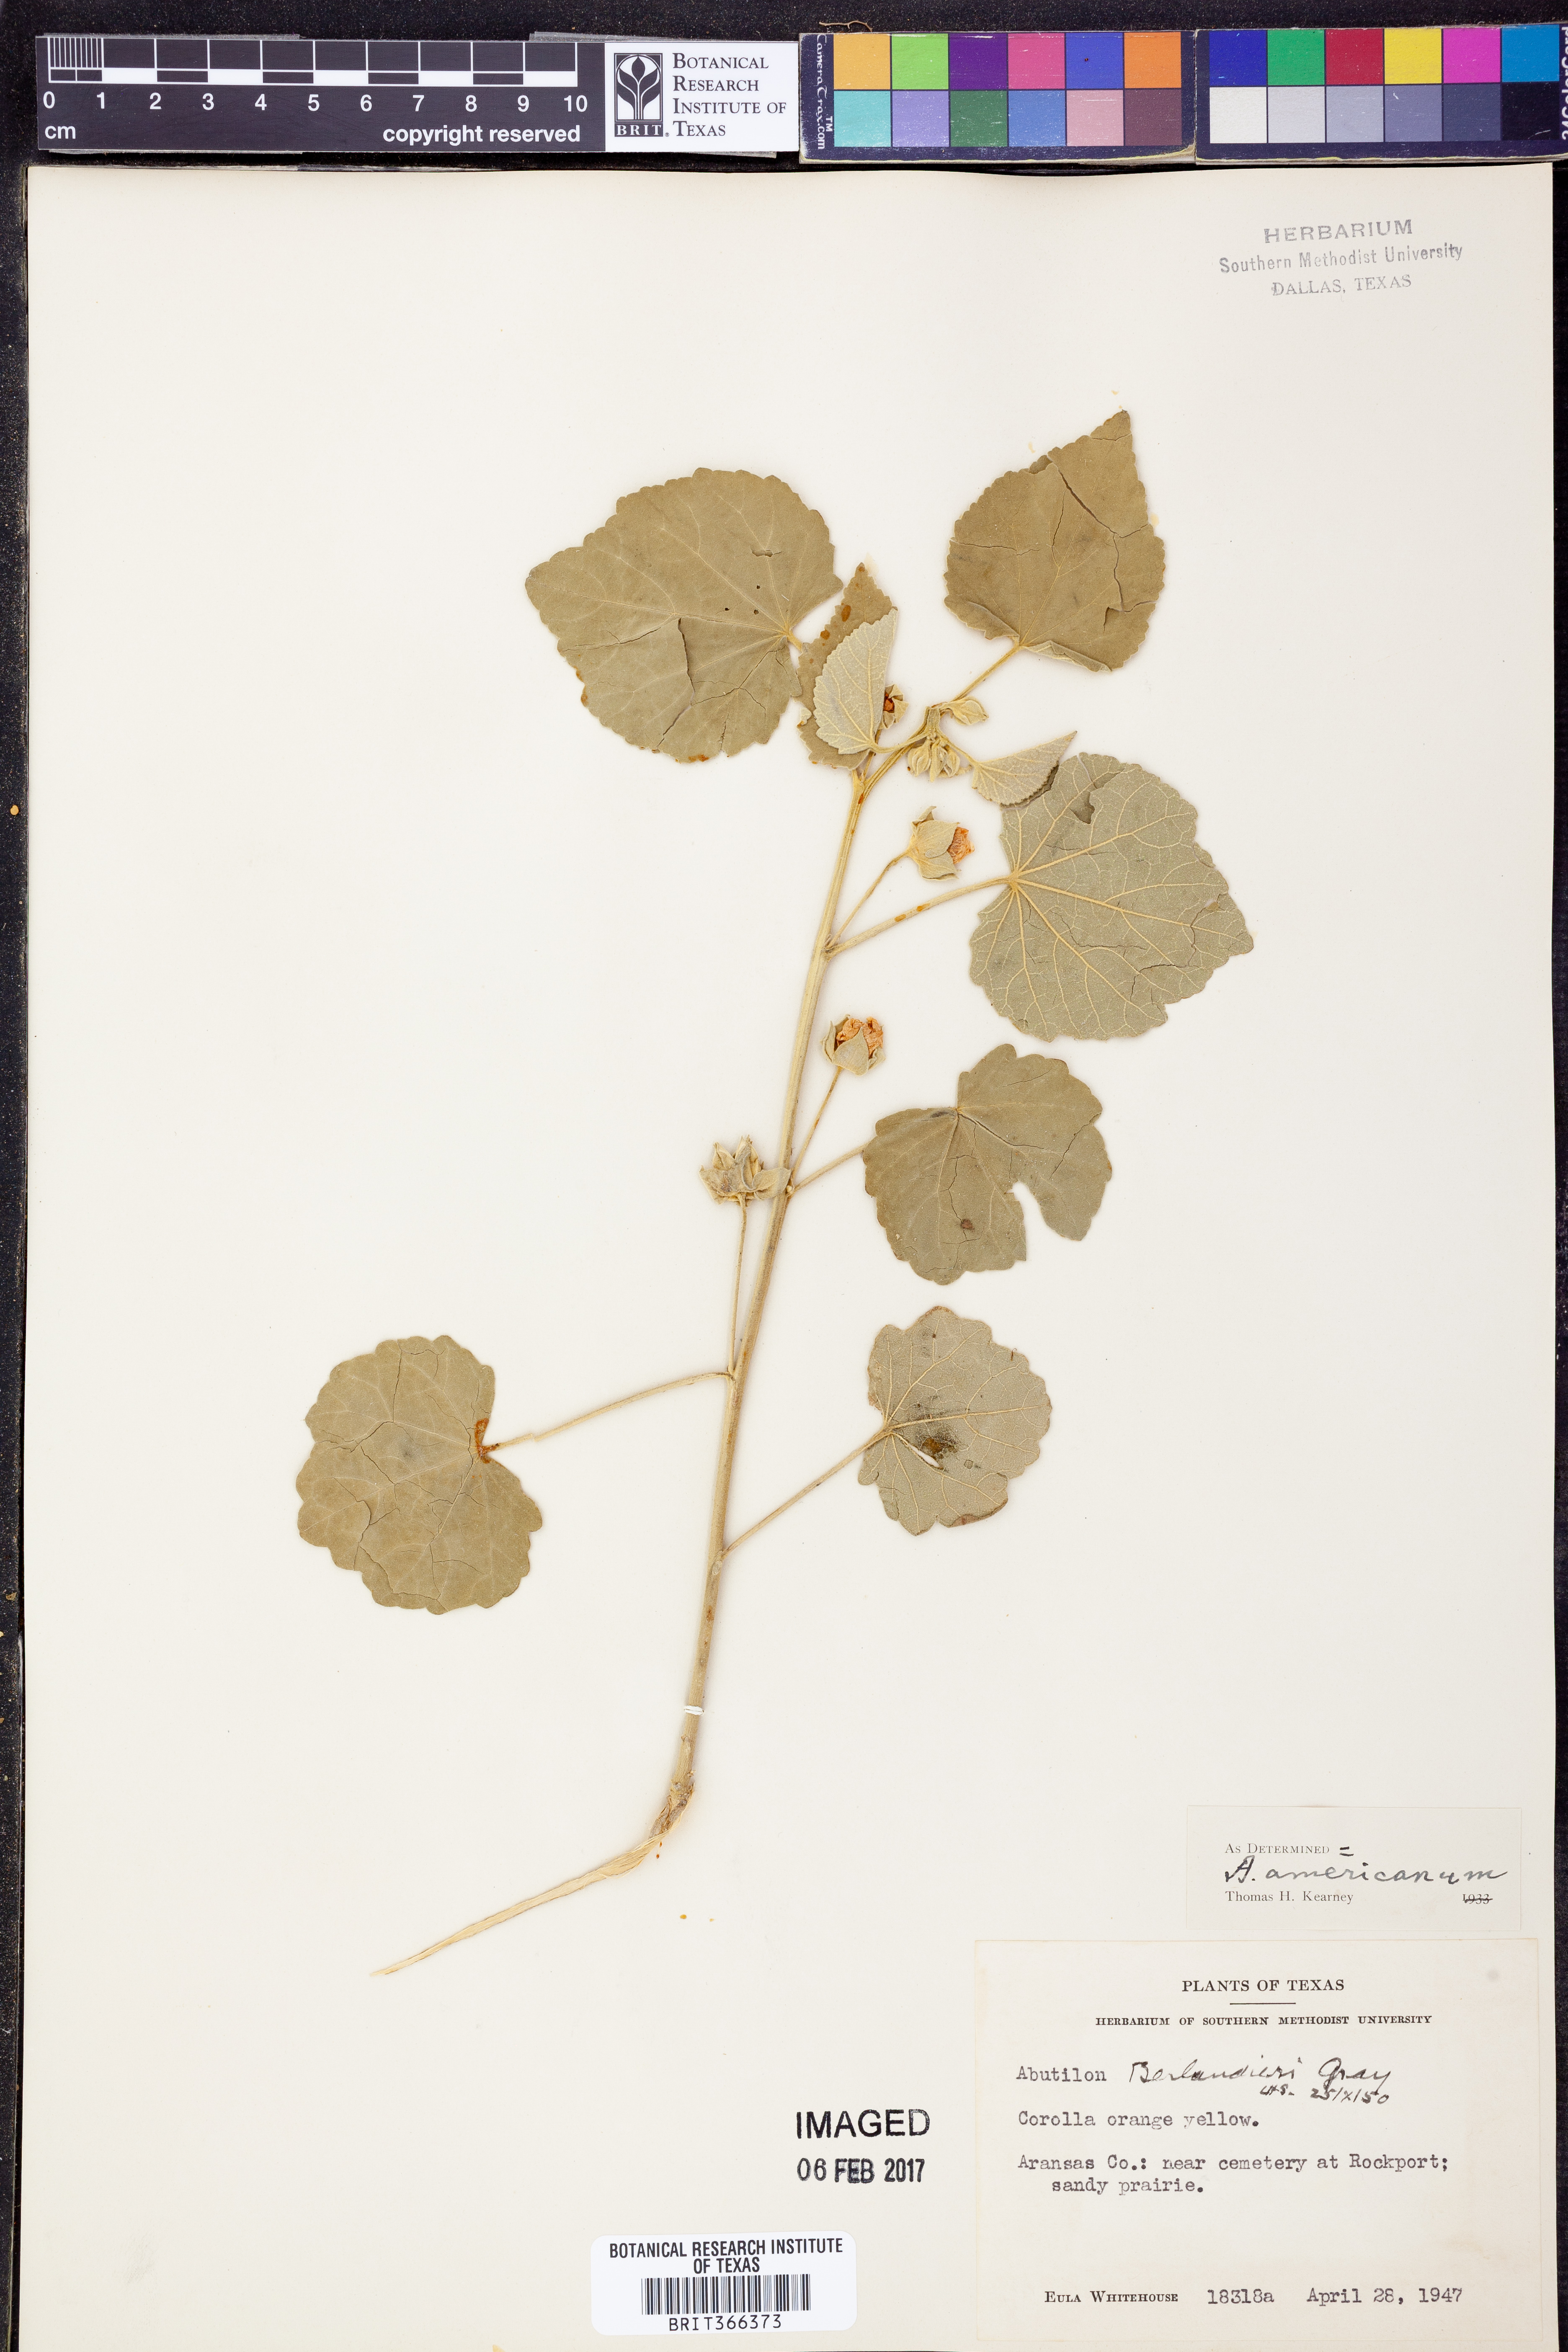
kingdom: Plantae
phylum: Tracheophyta
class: Magnoliopsida
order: Malvales
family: Malvaceae
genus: Abutilon
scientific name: Abutilon berlandieri
